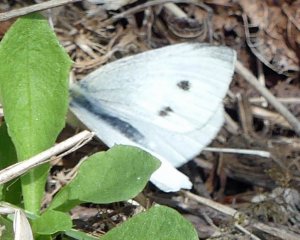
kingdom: Animalia
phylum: Arthropoda
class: Insecta
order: Lepidoptera
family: Pieridae
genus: Pieris
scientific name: Pieris rapae
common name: Cabbage White
